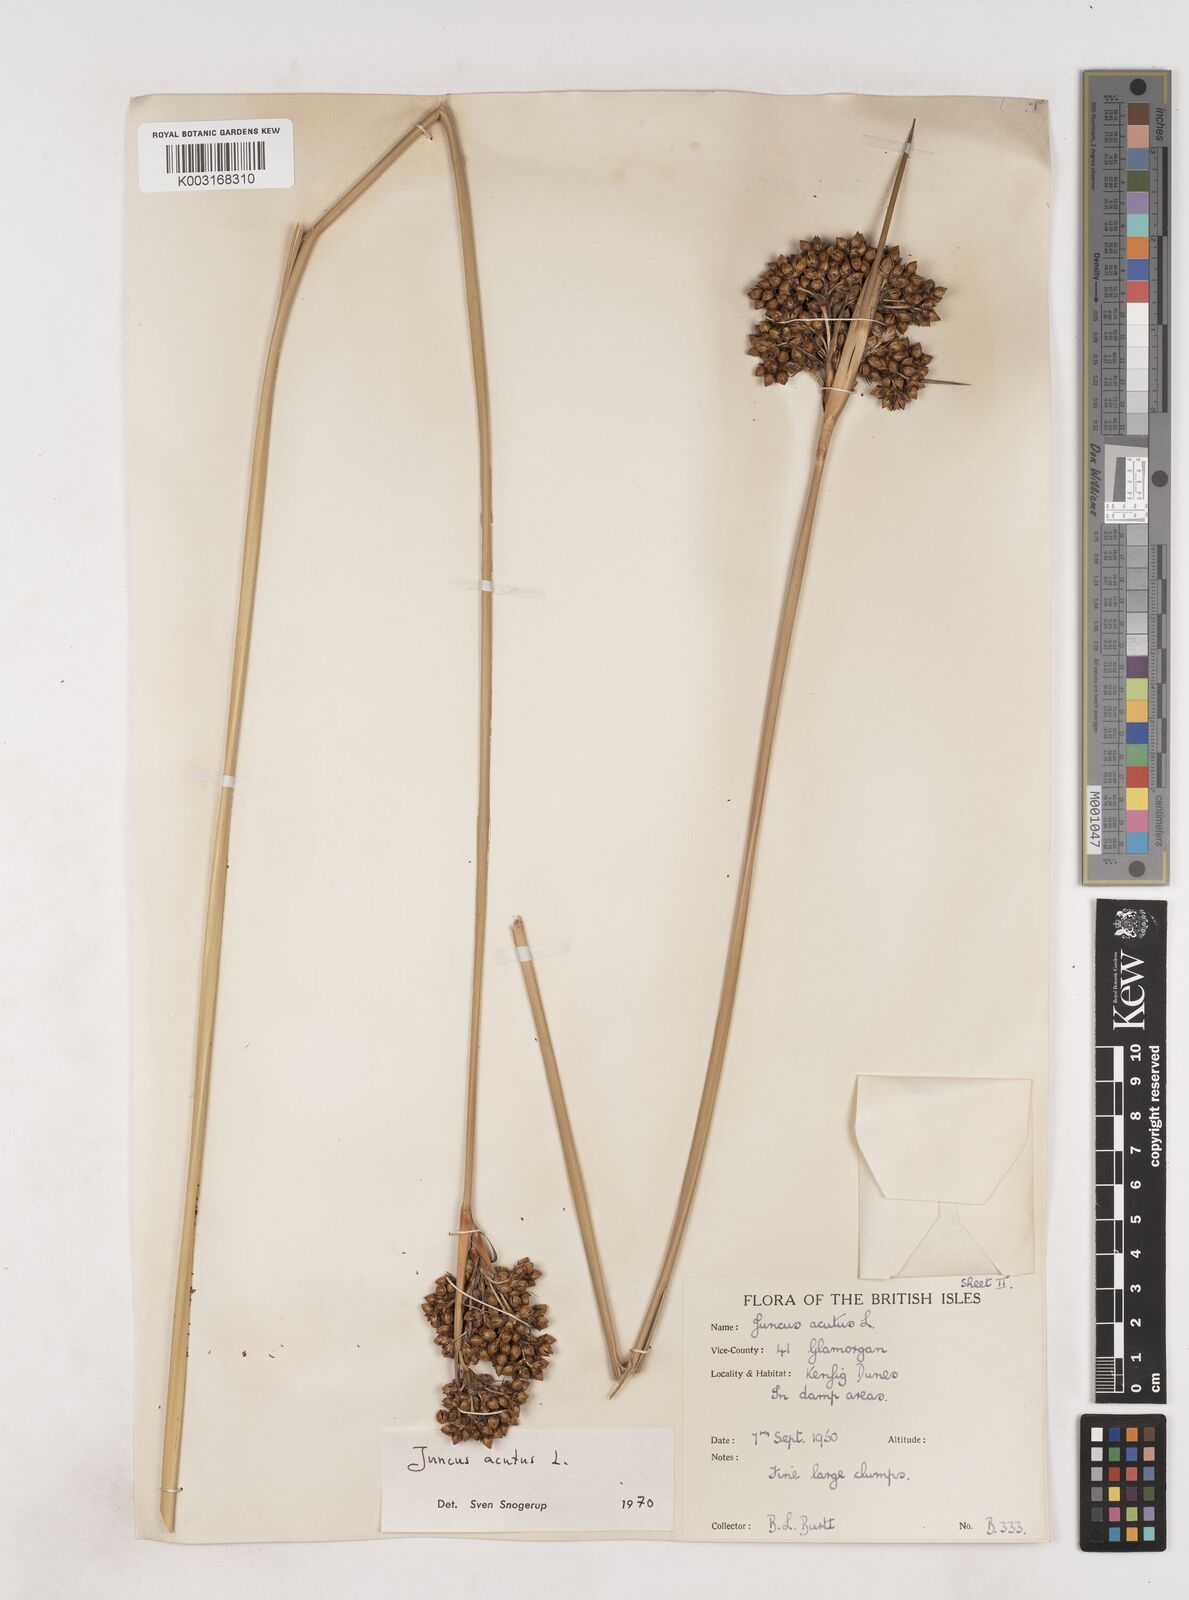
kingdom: Plantae
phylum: Tracheophyta
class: Liliopsida
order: Poales
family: Juncaceae
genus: Juncus
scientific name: Juncus acutus
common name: Sharp rush
